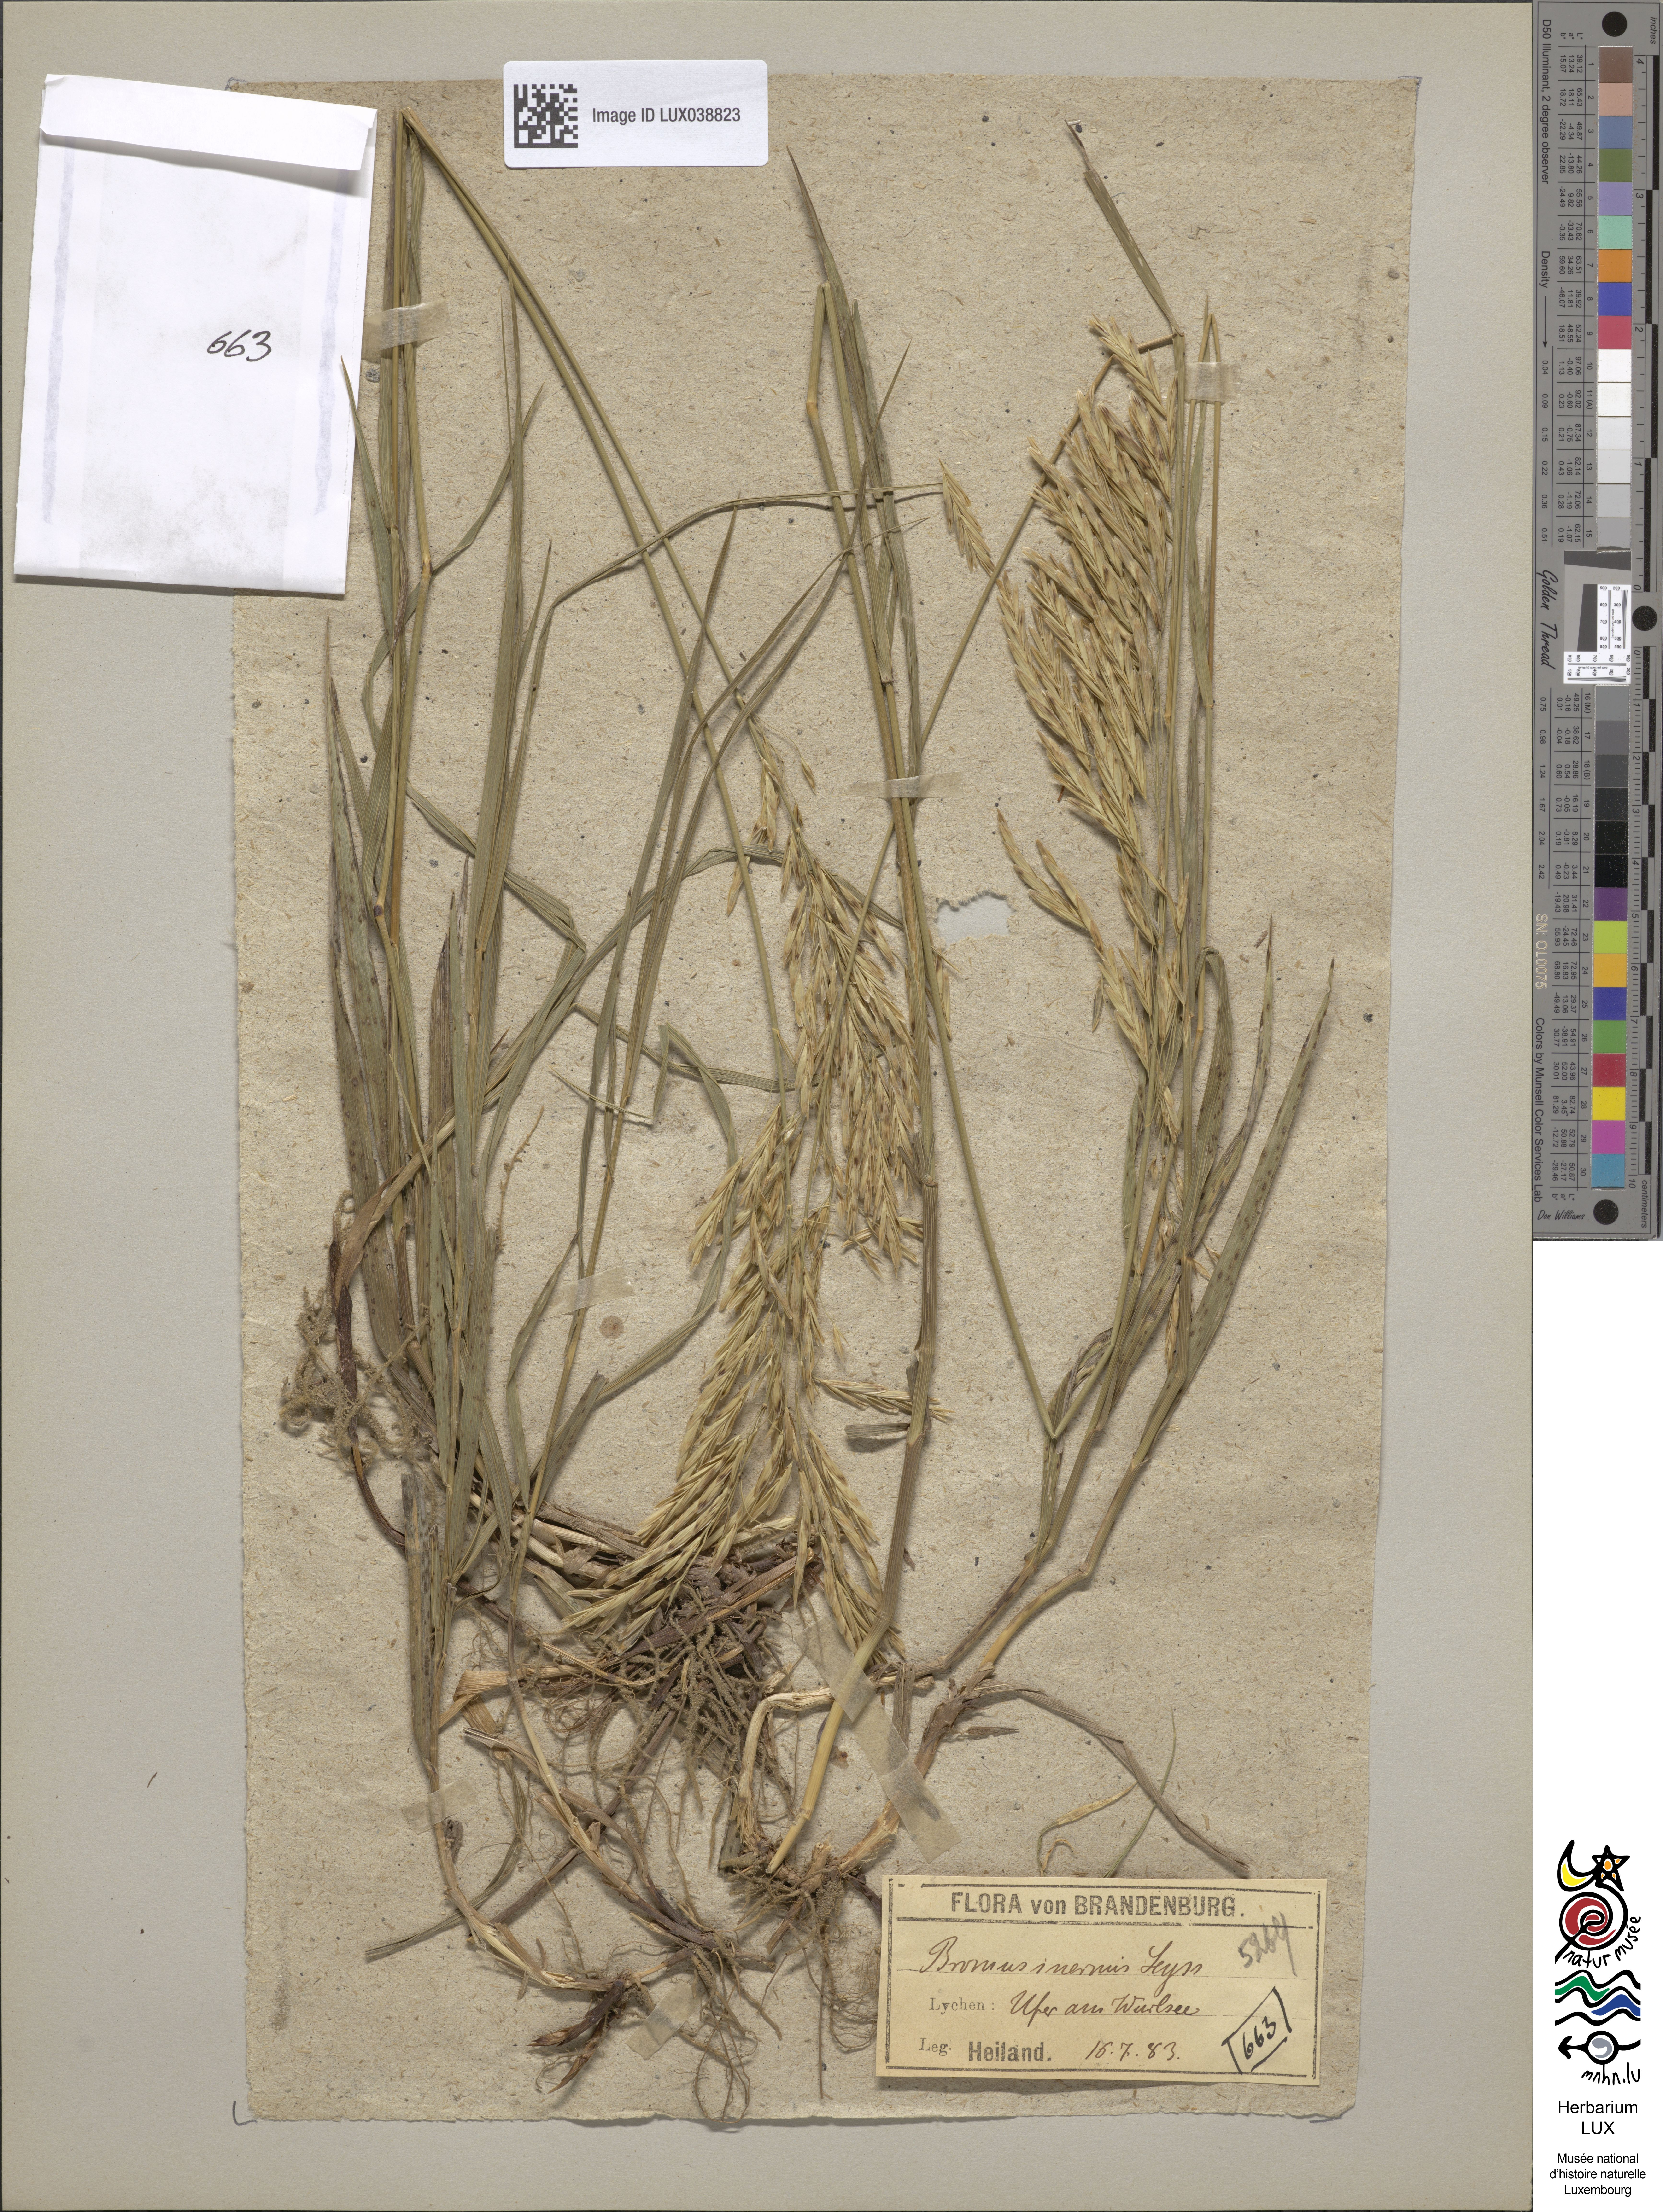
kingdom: Plantae
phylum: Tracheophyta
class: Liliopsida
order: Poales
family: Poaceae
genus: Bromus
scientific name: Bromus inermis
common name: Smooth brome
